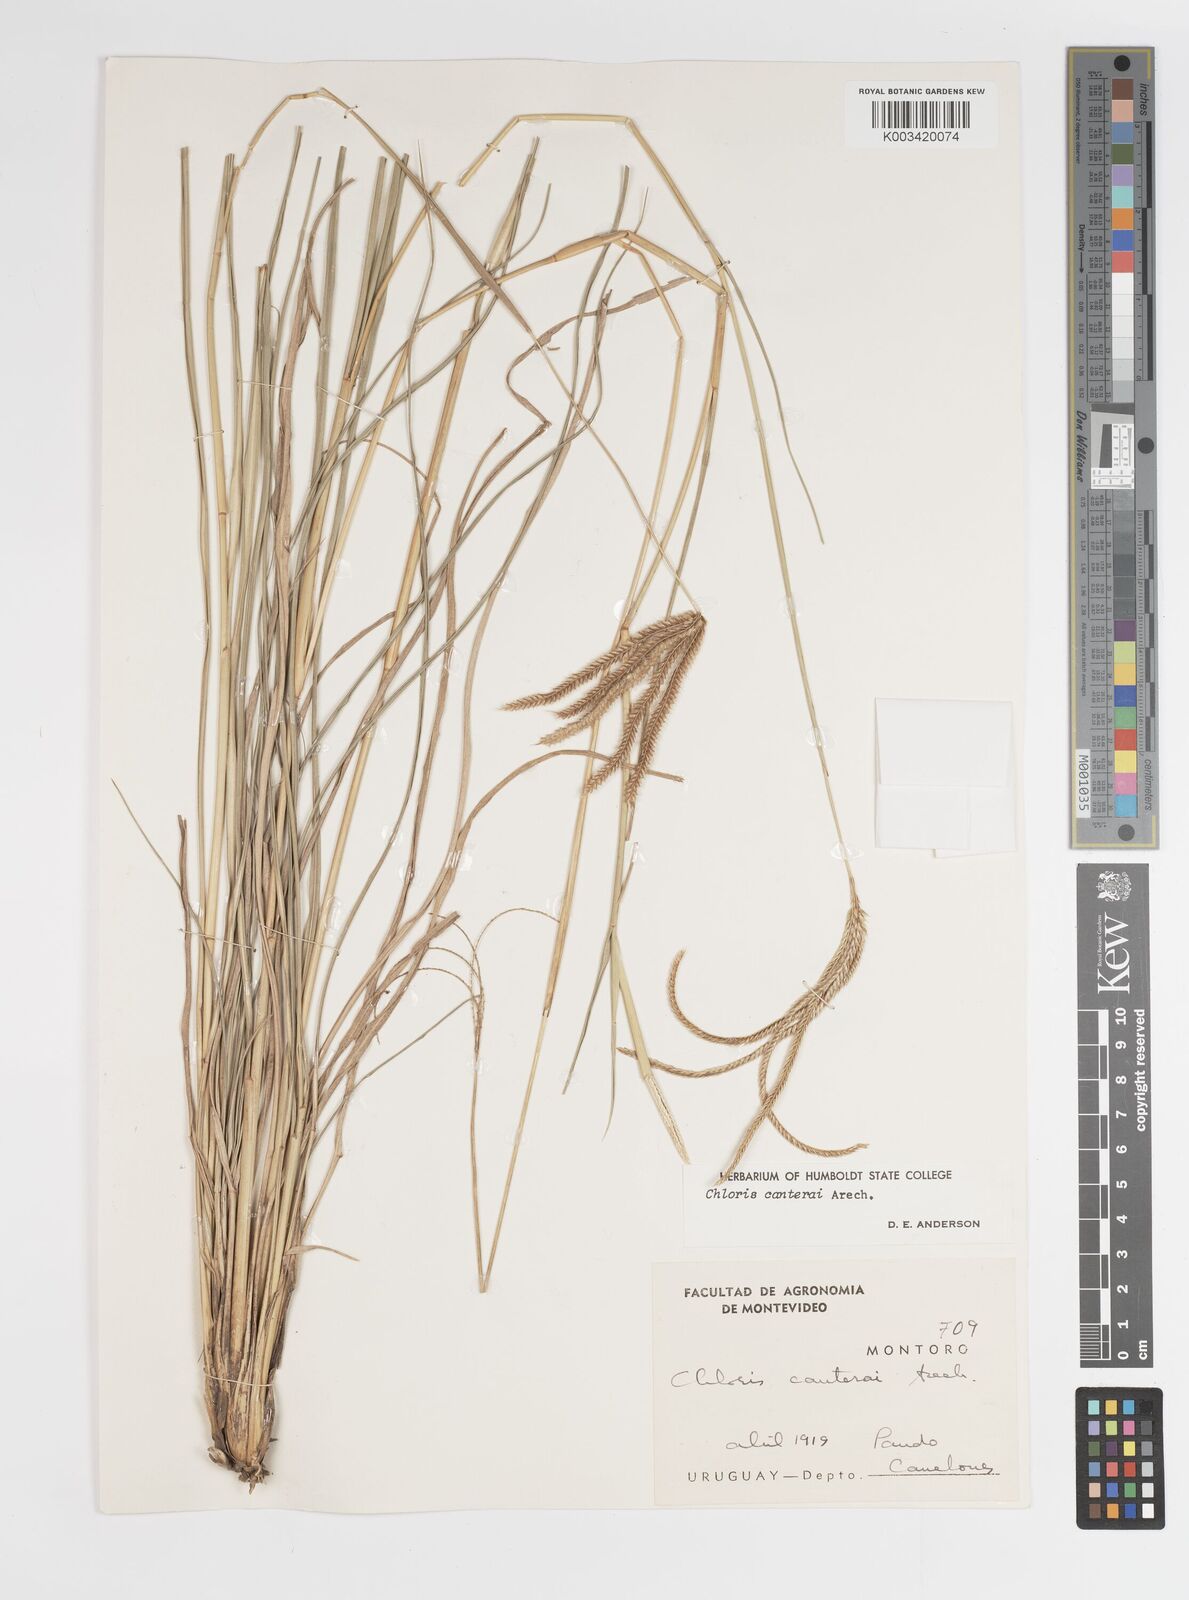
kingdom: Plantae
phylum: Tracheophyta
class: Liliopsida
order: Poales
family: Poaceae
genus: Stapfochloa
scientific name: Stapfochloa canterae
